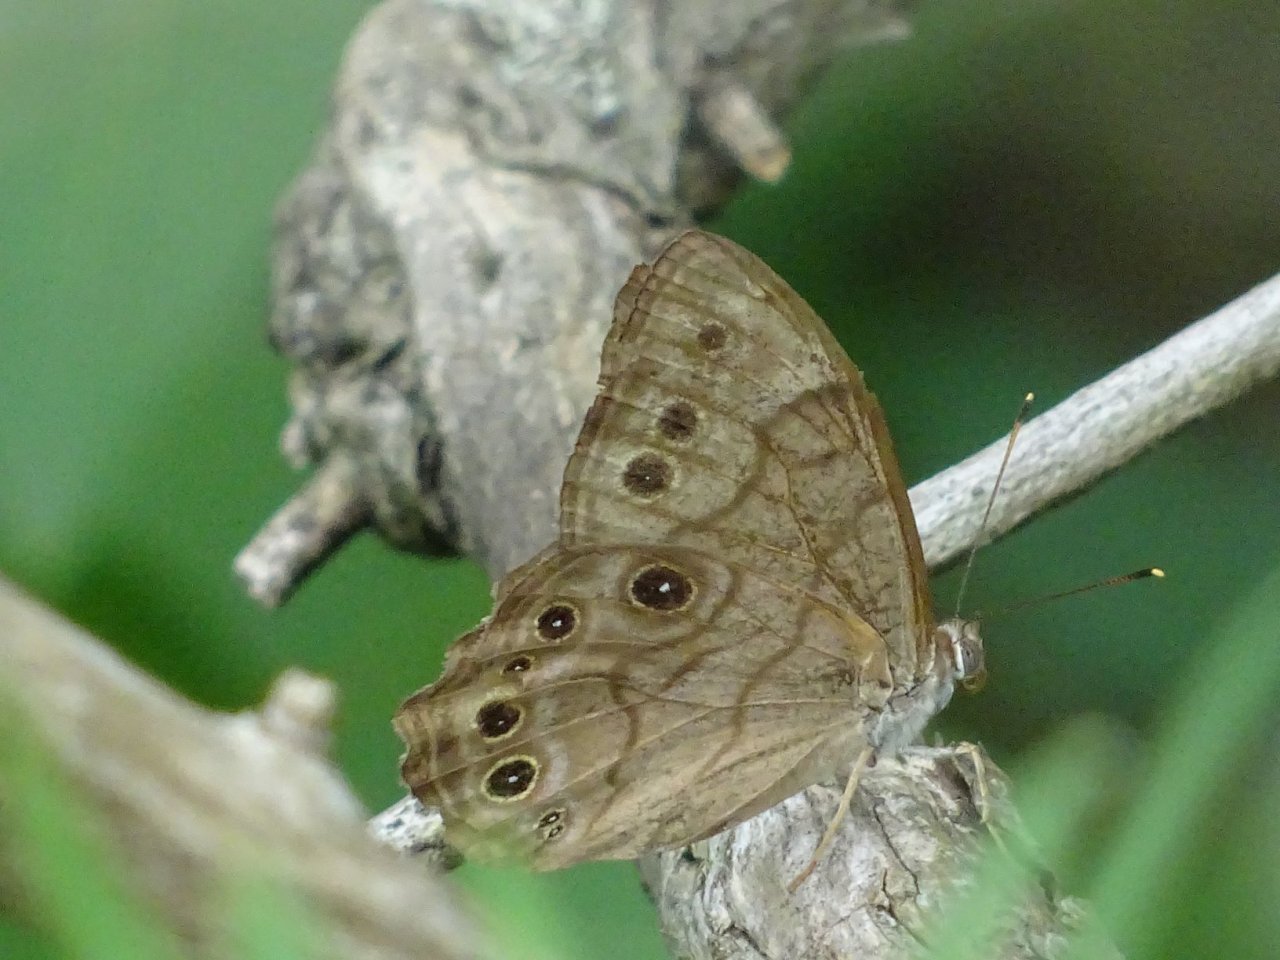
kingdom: Animalia
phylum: Arthropoda
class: Insecta
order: Lepidoptera
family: Nymphalidae
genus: Lethe
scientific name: Lethe anthedon
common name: Northern Pearly-Eye
